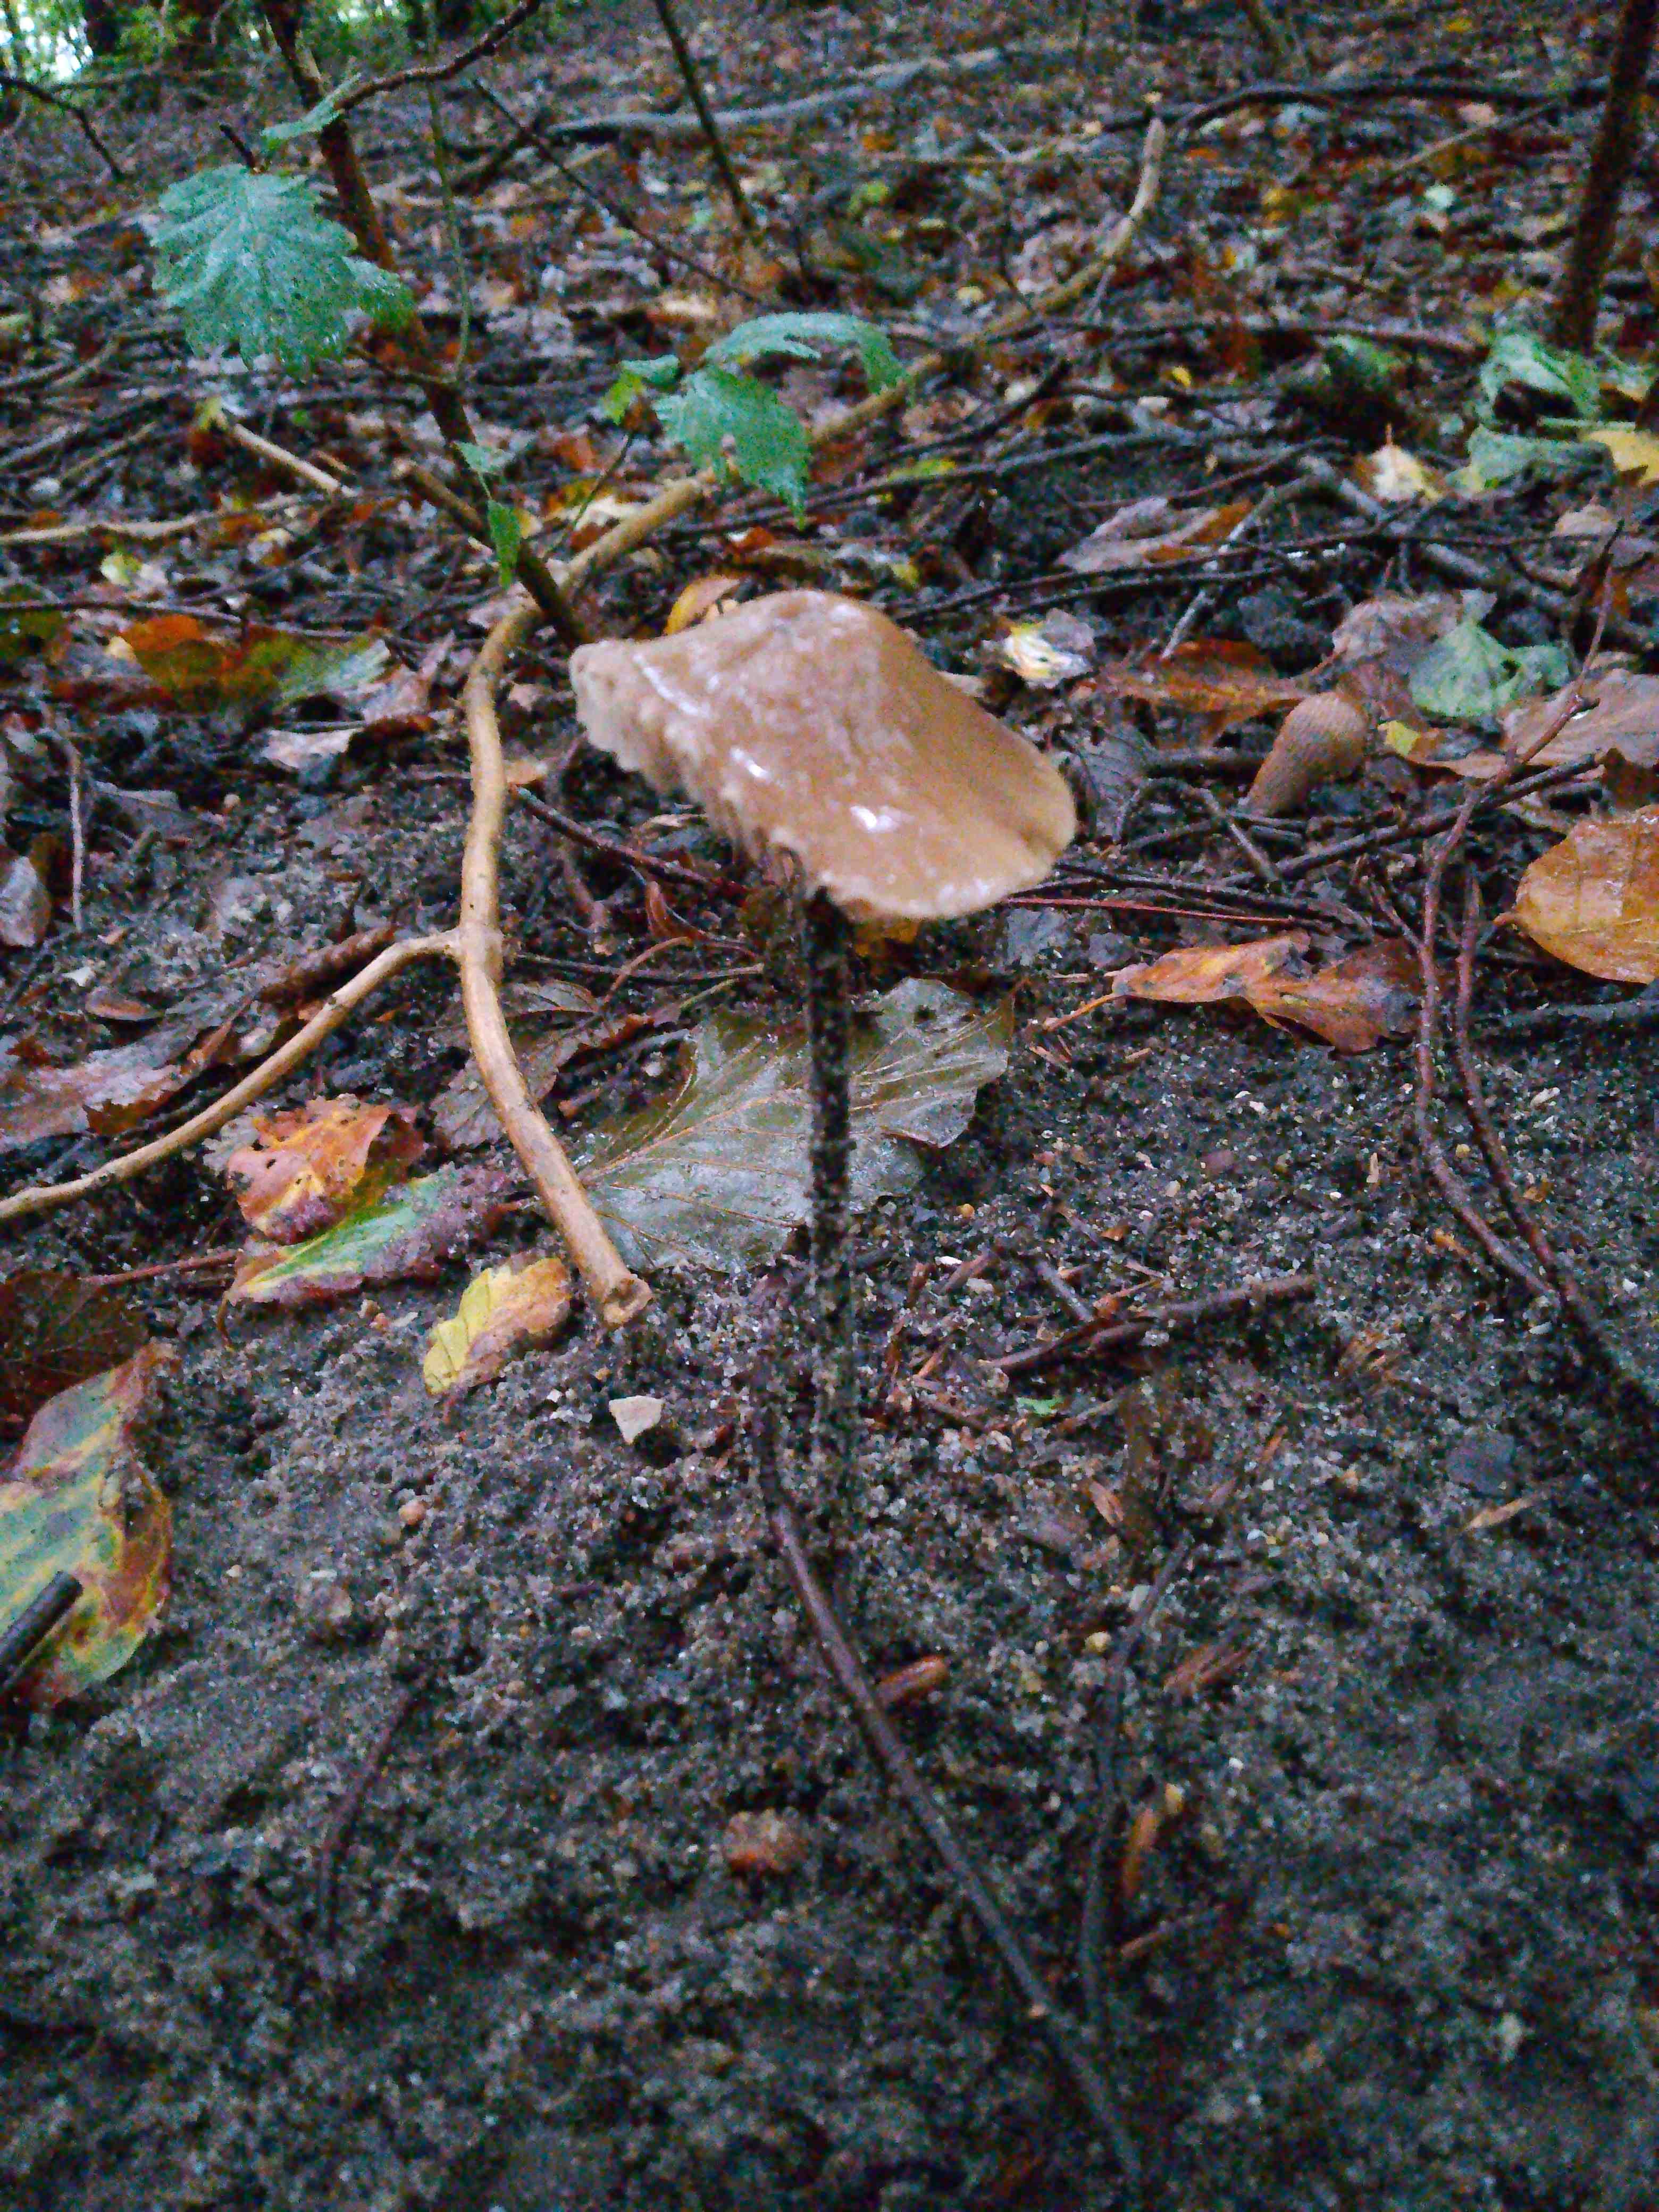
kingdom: Fungi
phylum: Basidiomycota
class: Agaricomycetes
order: Agaricales
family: Omphalotaceae
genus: Mycetinis
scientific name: Mycetinis alliaceus
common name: stor løghat
